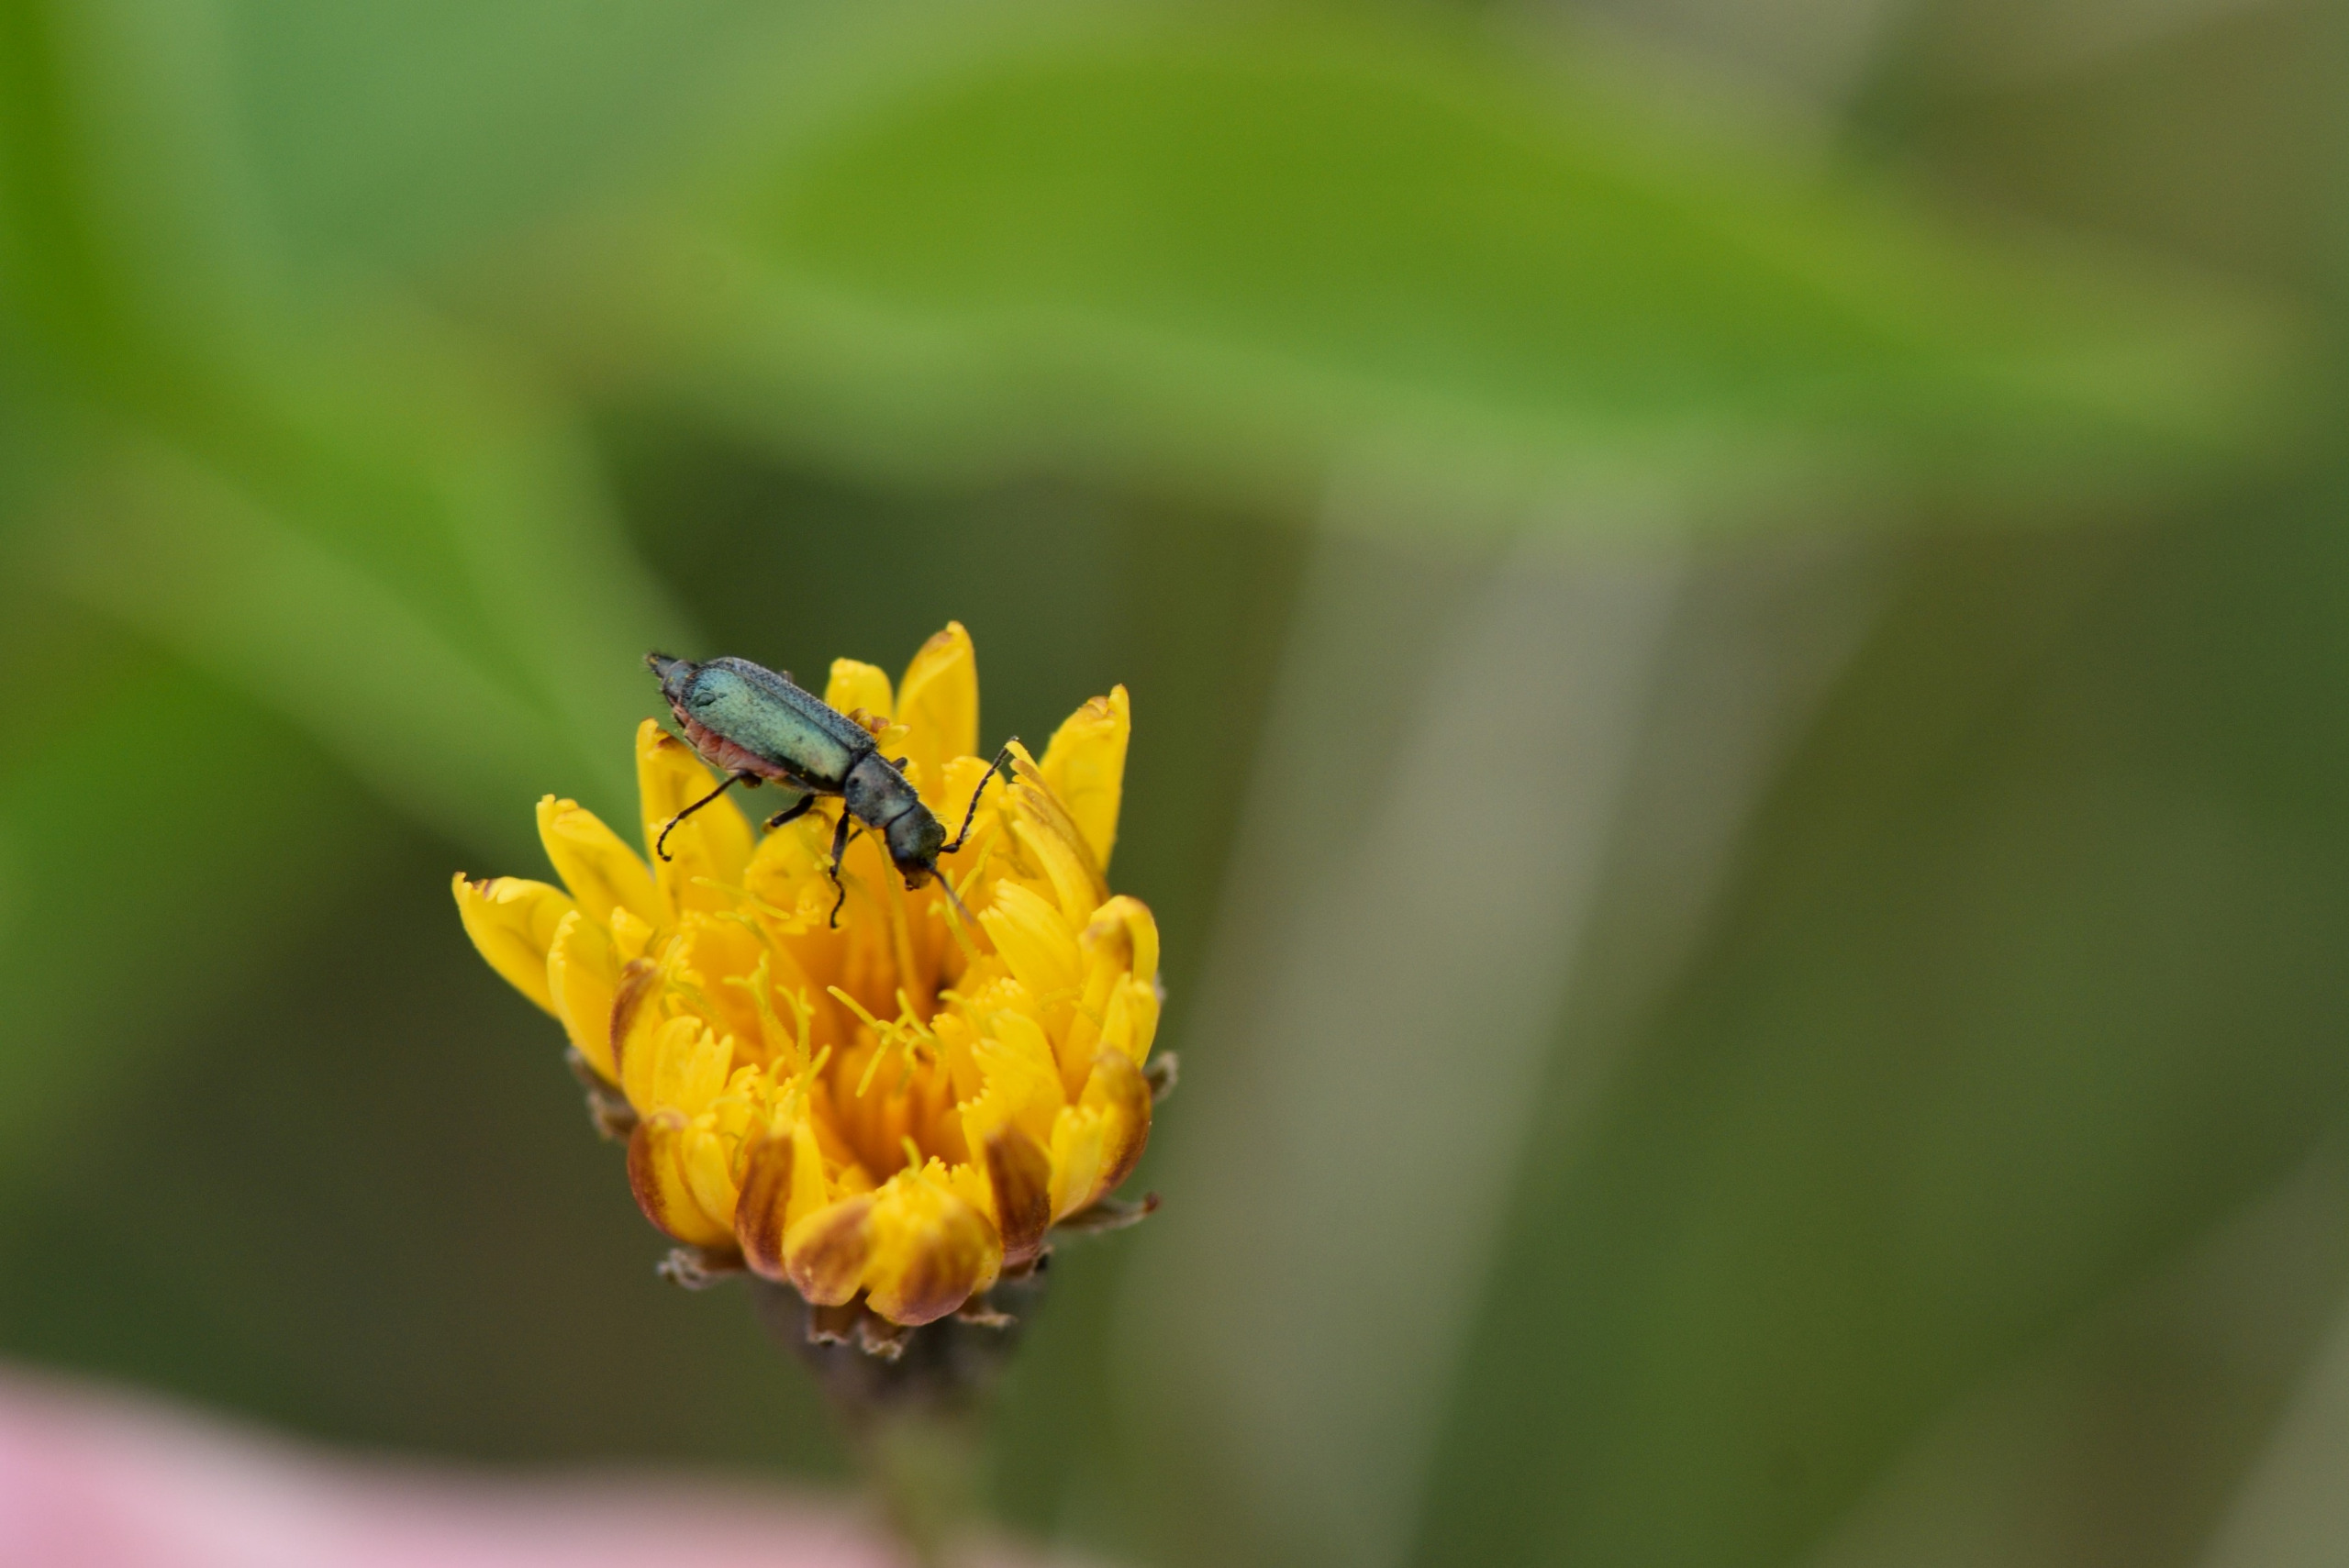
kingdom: Animalia
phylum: Arthropoda
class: Insecta
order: Coleoptera
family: Malachiidae
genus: Cordylepherus
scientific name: Cordylepherus viridis
